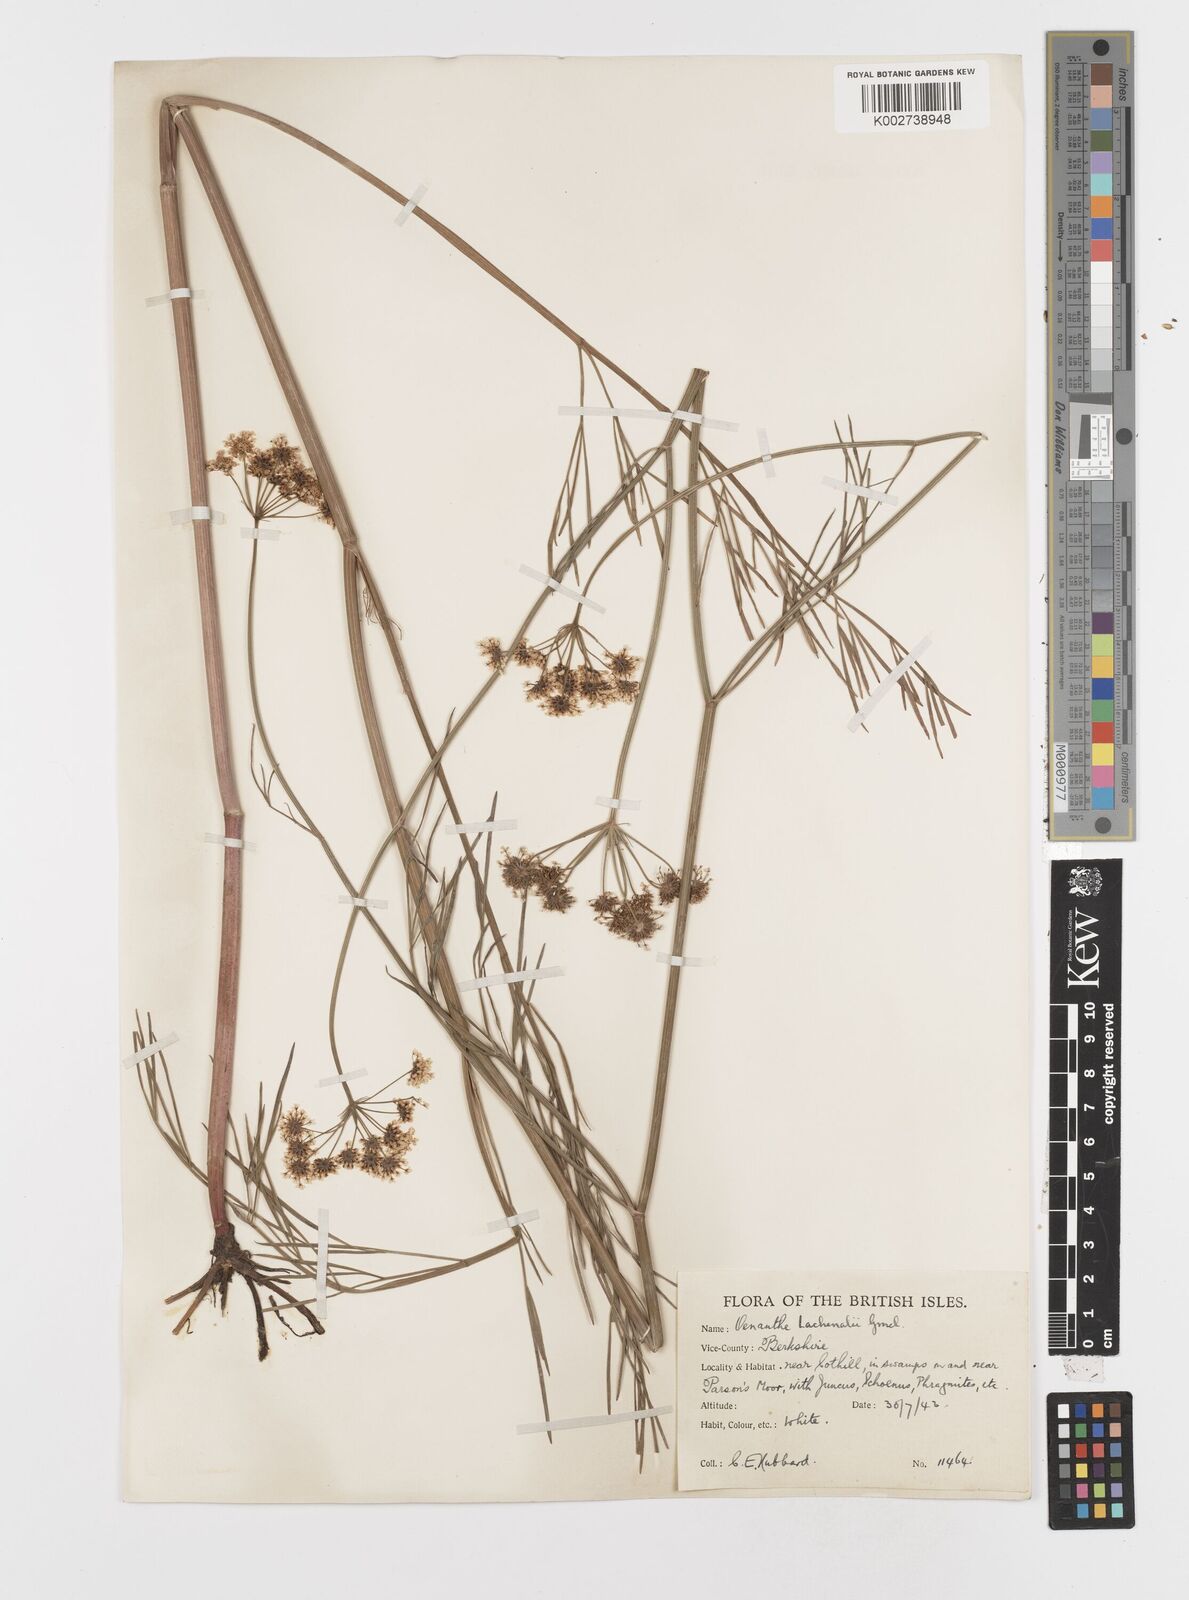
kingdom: Plantae
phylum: Tracheophyta
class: Magnoliopsida
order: Apiales
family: Apiaceae
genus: Oenanthe
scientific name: Oenanthe lachenalii
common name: Parsley water-dropwort
